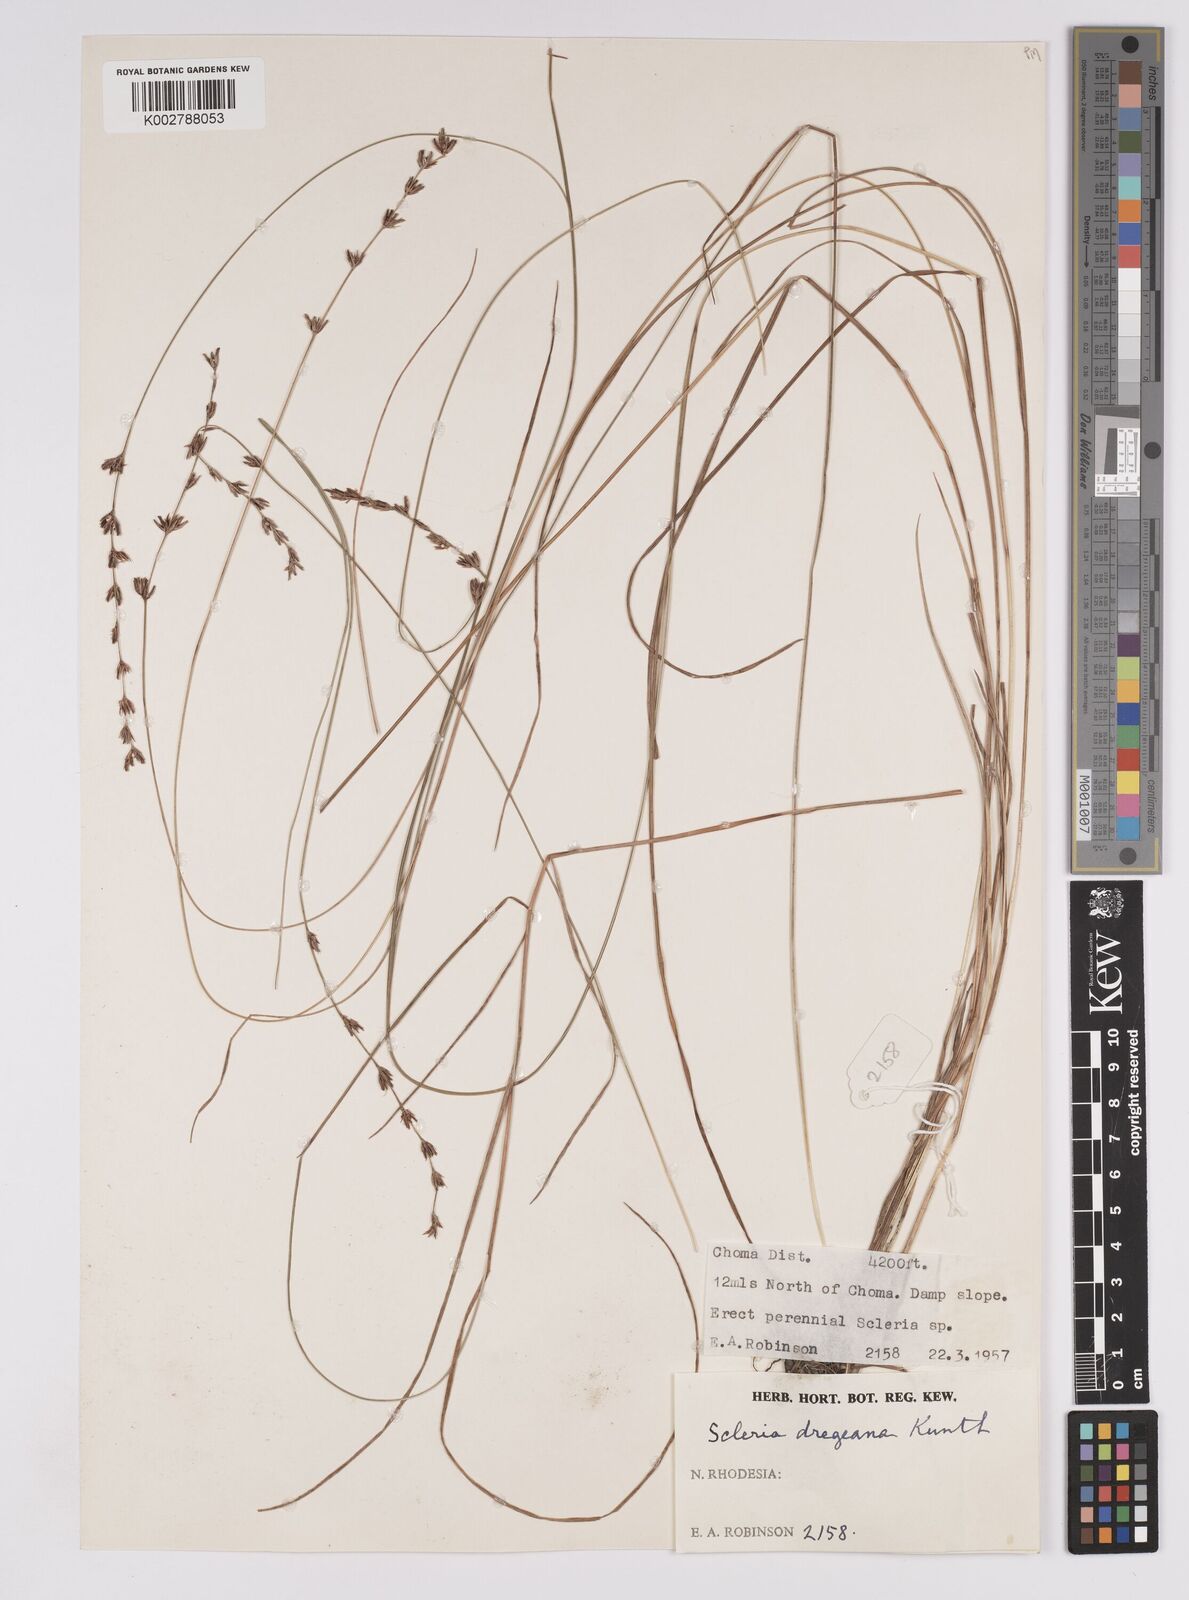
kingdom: Plantae
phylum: Tracheophyta
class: Liliopsida
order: Poales
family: Cyperaceae
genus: Scleria
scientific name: Scleria dregeana
